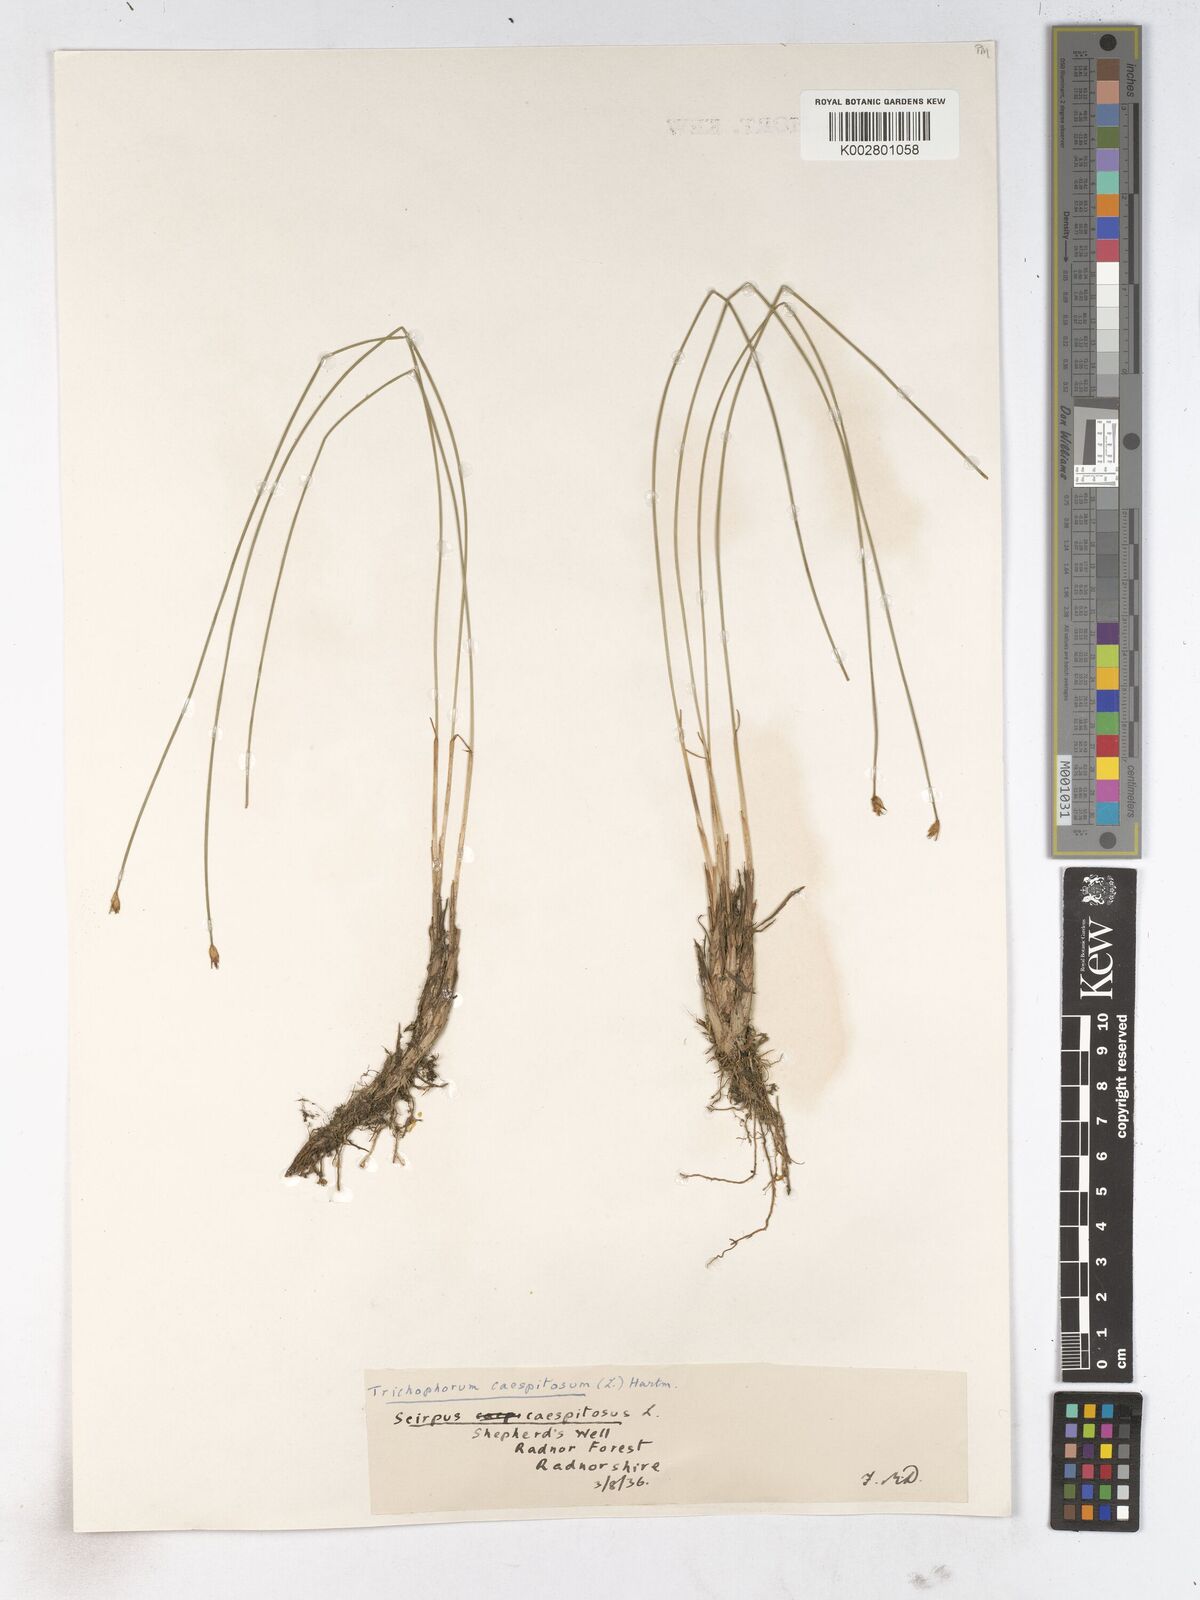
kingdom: Plantae
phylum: Tracheophyta
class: Liliopsida
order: Poales
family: Cyperaceae
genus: Trichophorum
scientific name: Trichophorum cespitosum
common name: Cespitose bulrush
